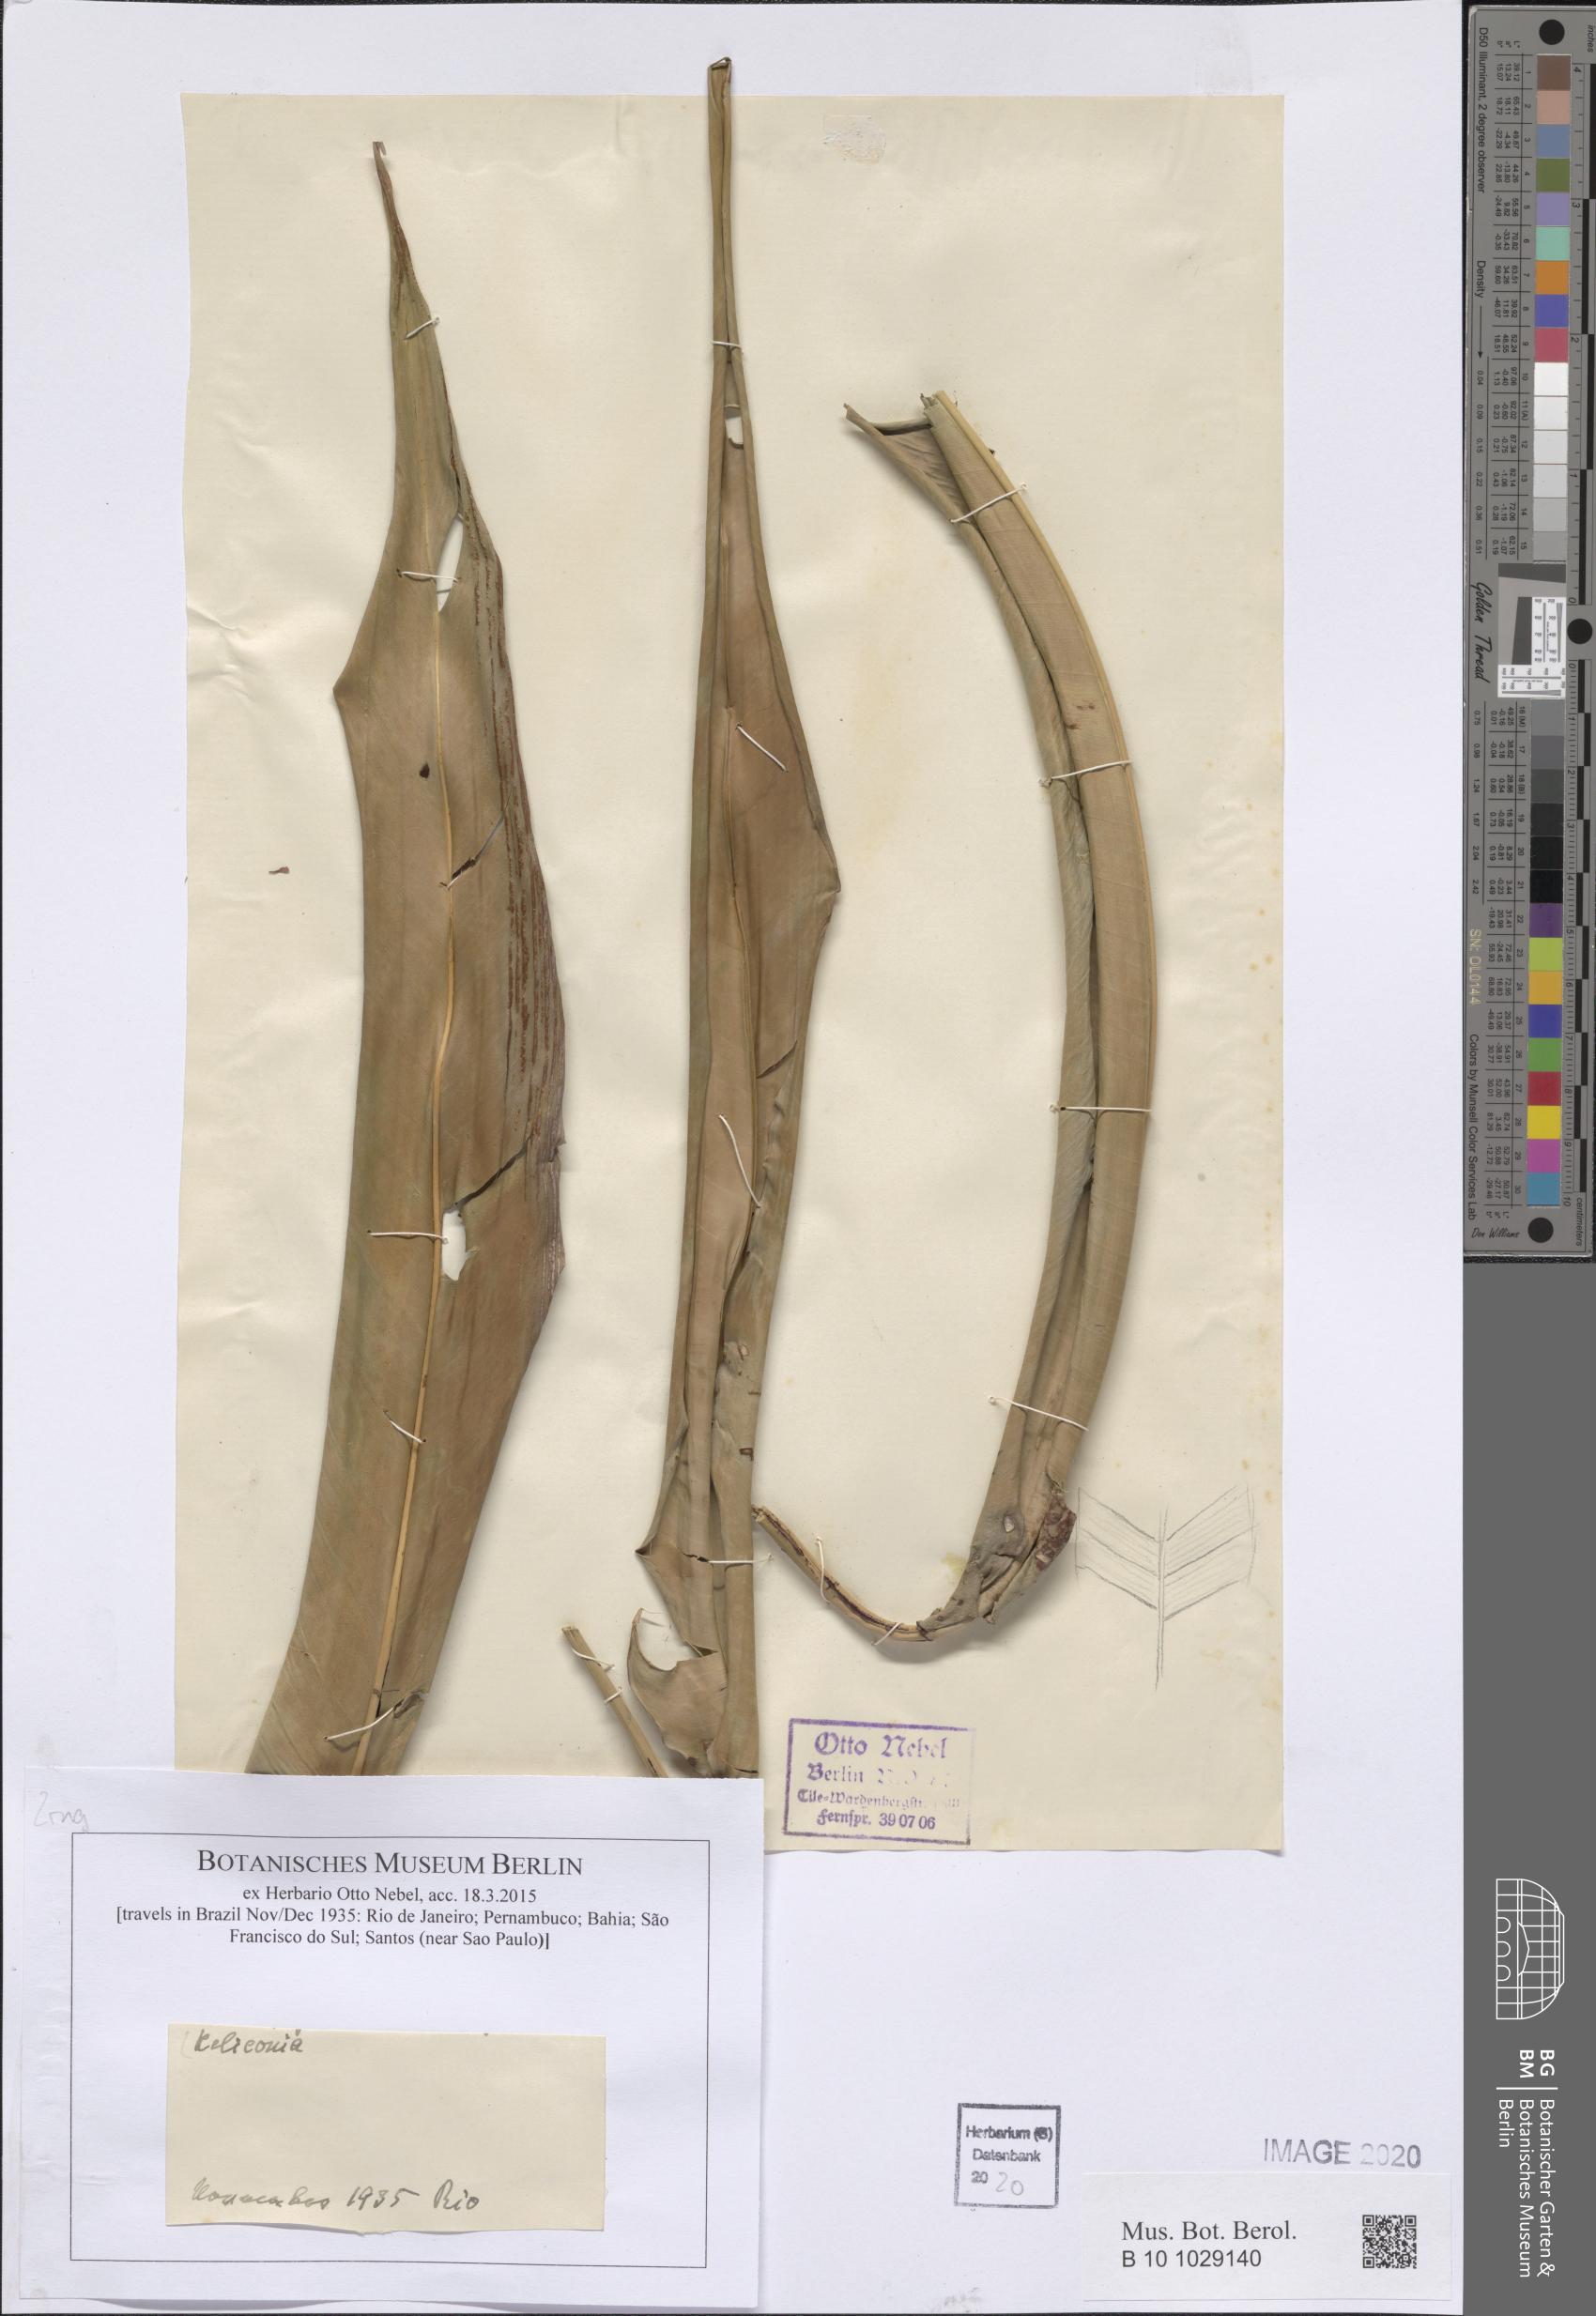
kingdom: Plantae
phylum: Tracheophyta
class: Liliopsida
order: Zingiberales
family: Heliconiaceae
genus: Heliconia
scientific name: Heliconia
